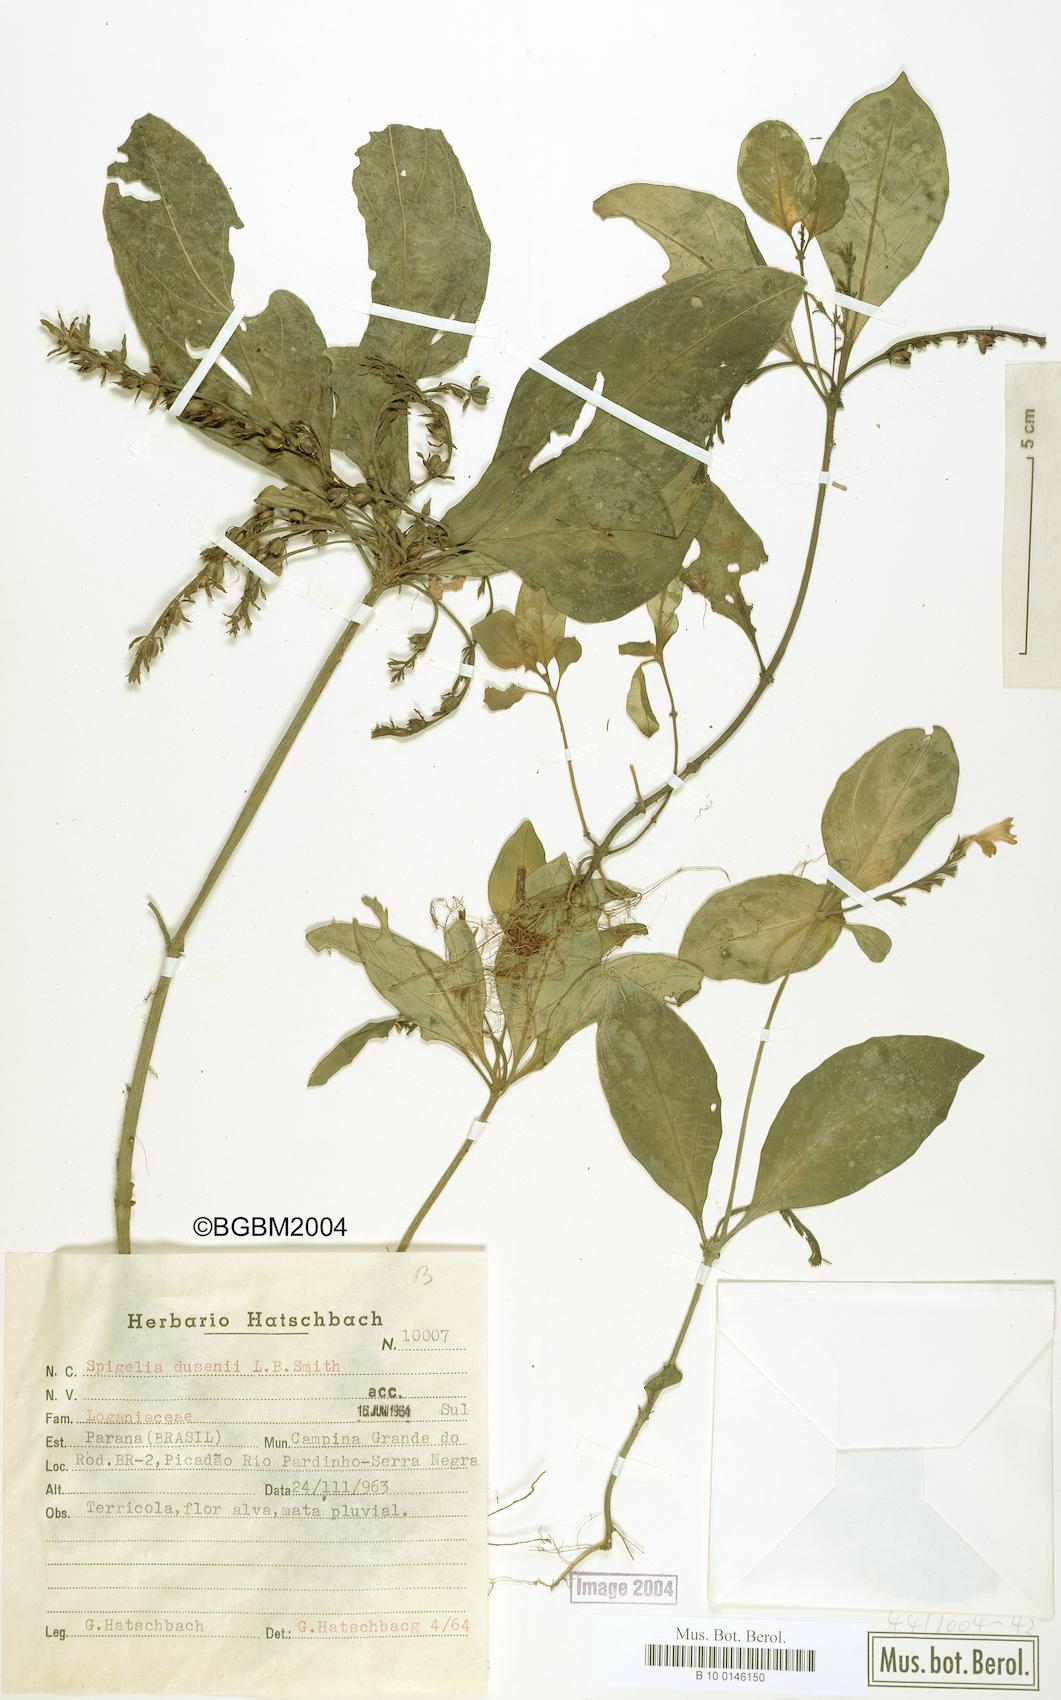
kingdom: Plantae
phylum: Tracheophyta
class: Magnoliopsida
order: Gentianales
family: Loganiaceae
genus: Spigelia
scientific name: Spigelia beyrichiana
